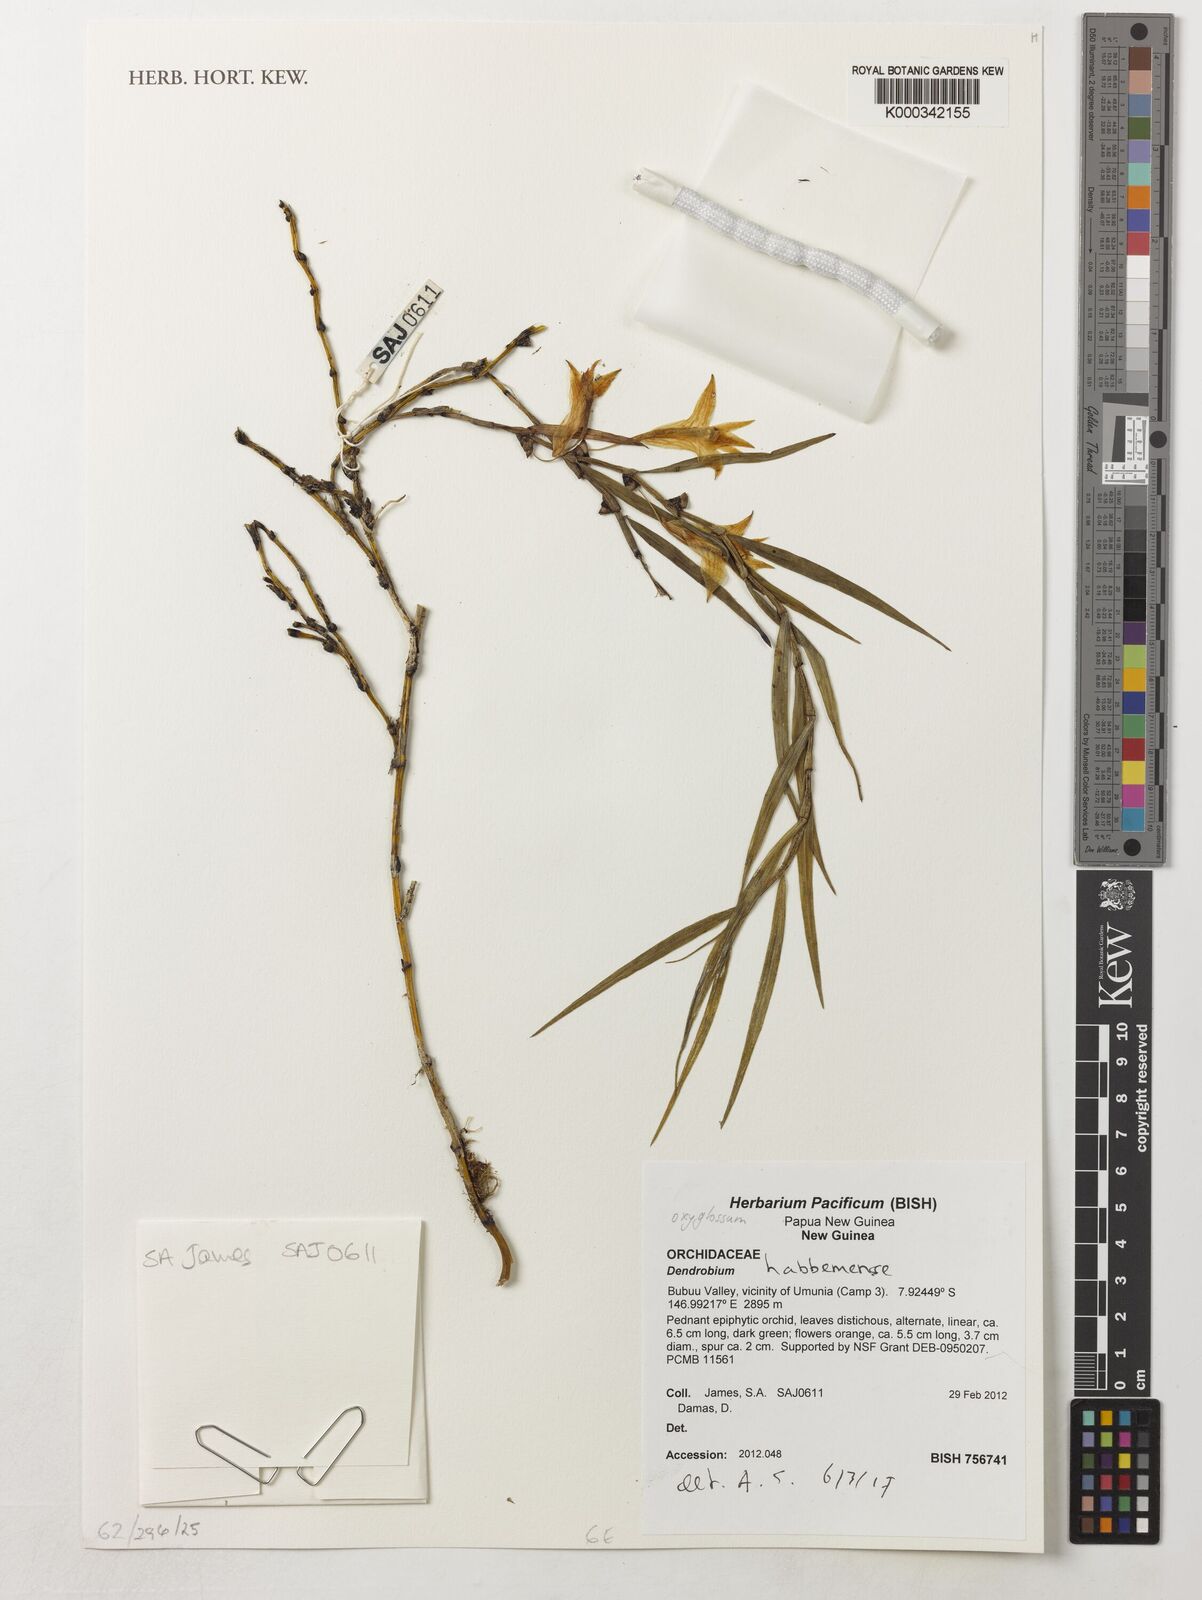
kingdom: Plantae
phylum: Tracheophyta
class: Liliopsida
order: Asparagales
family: Orchidaceae
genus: Dendrobium
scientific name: Dendrobium habbemense
